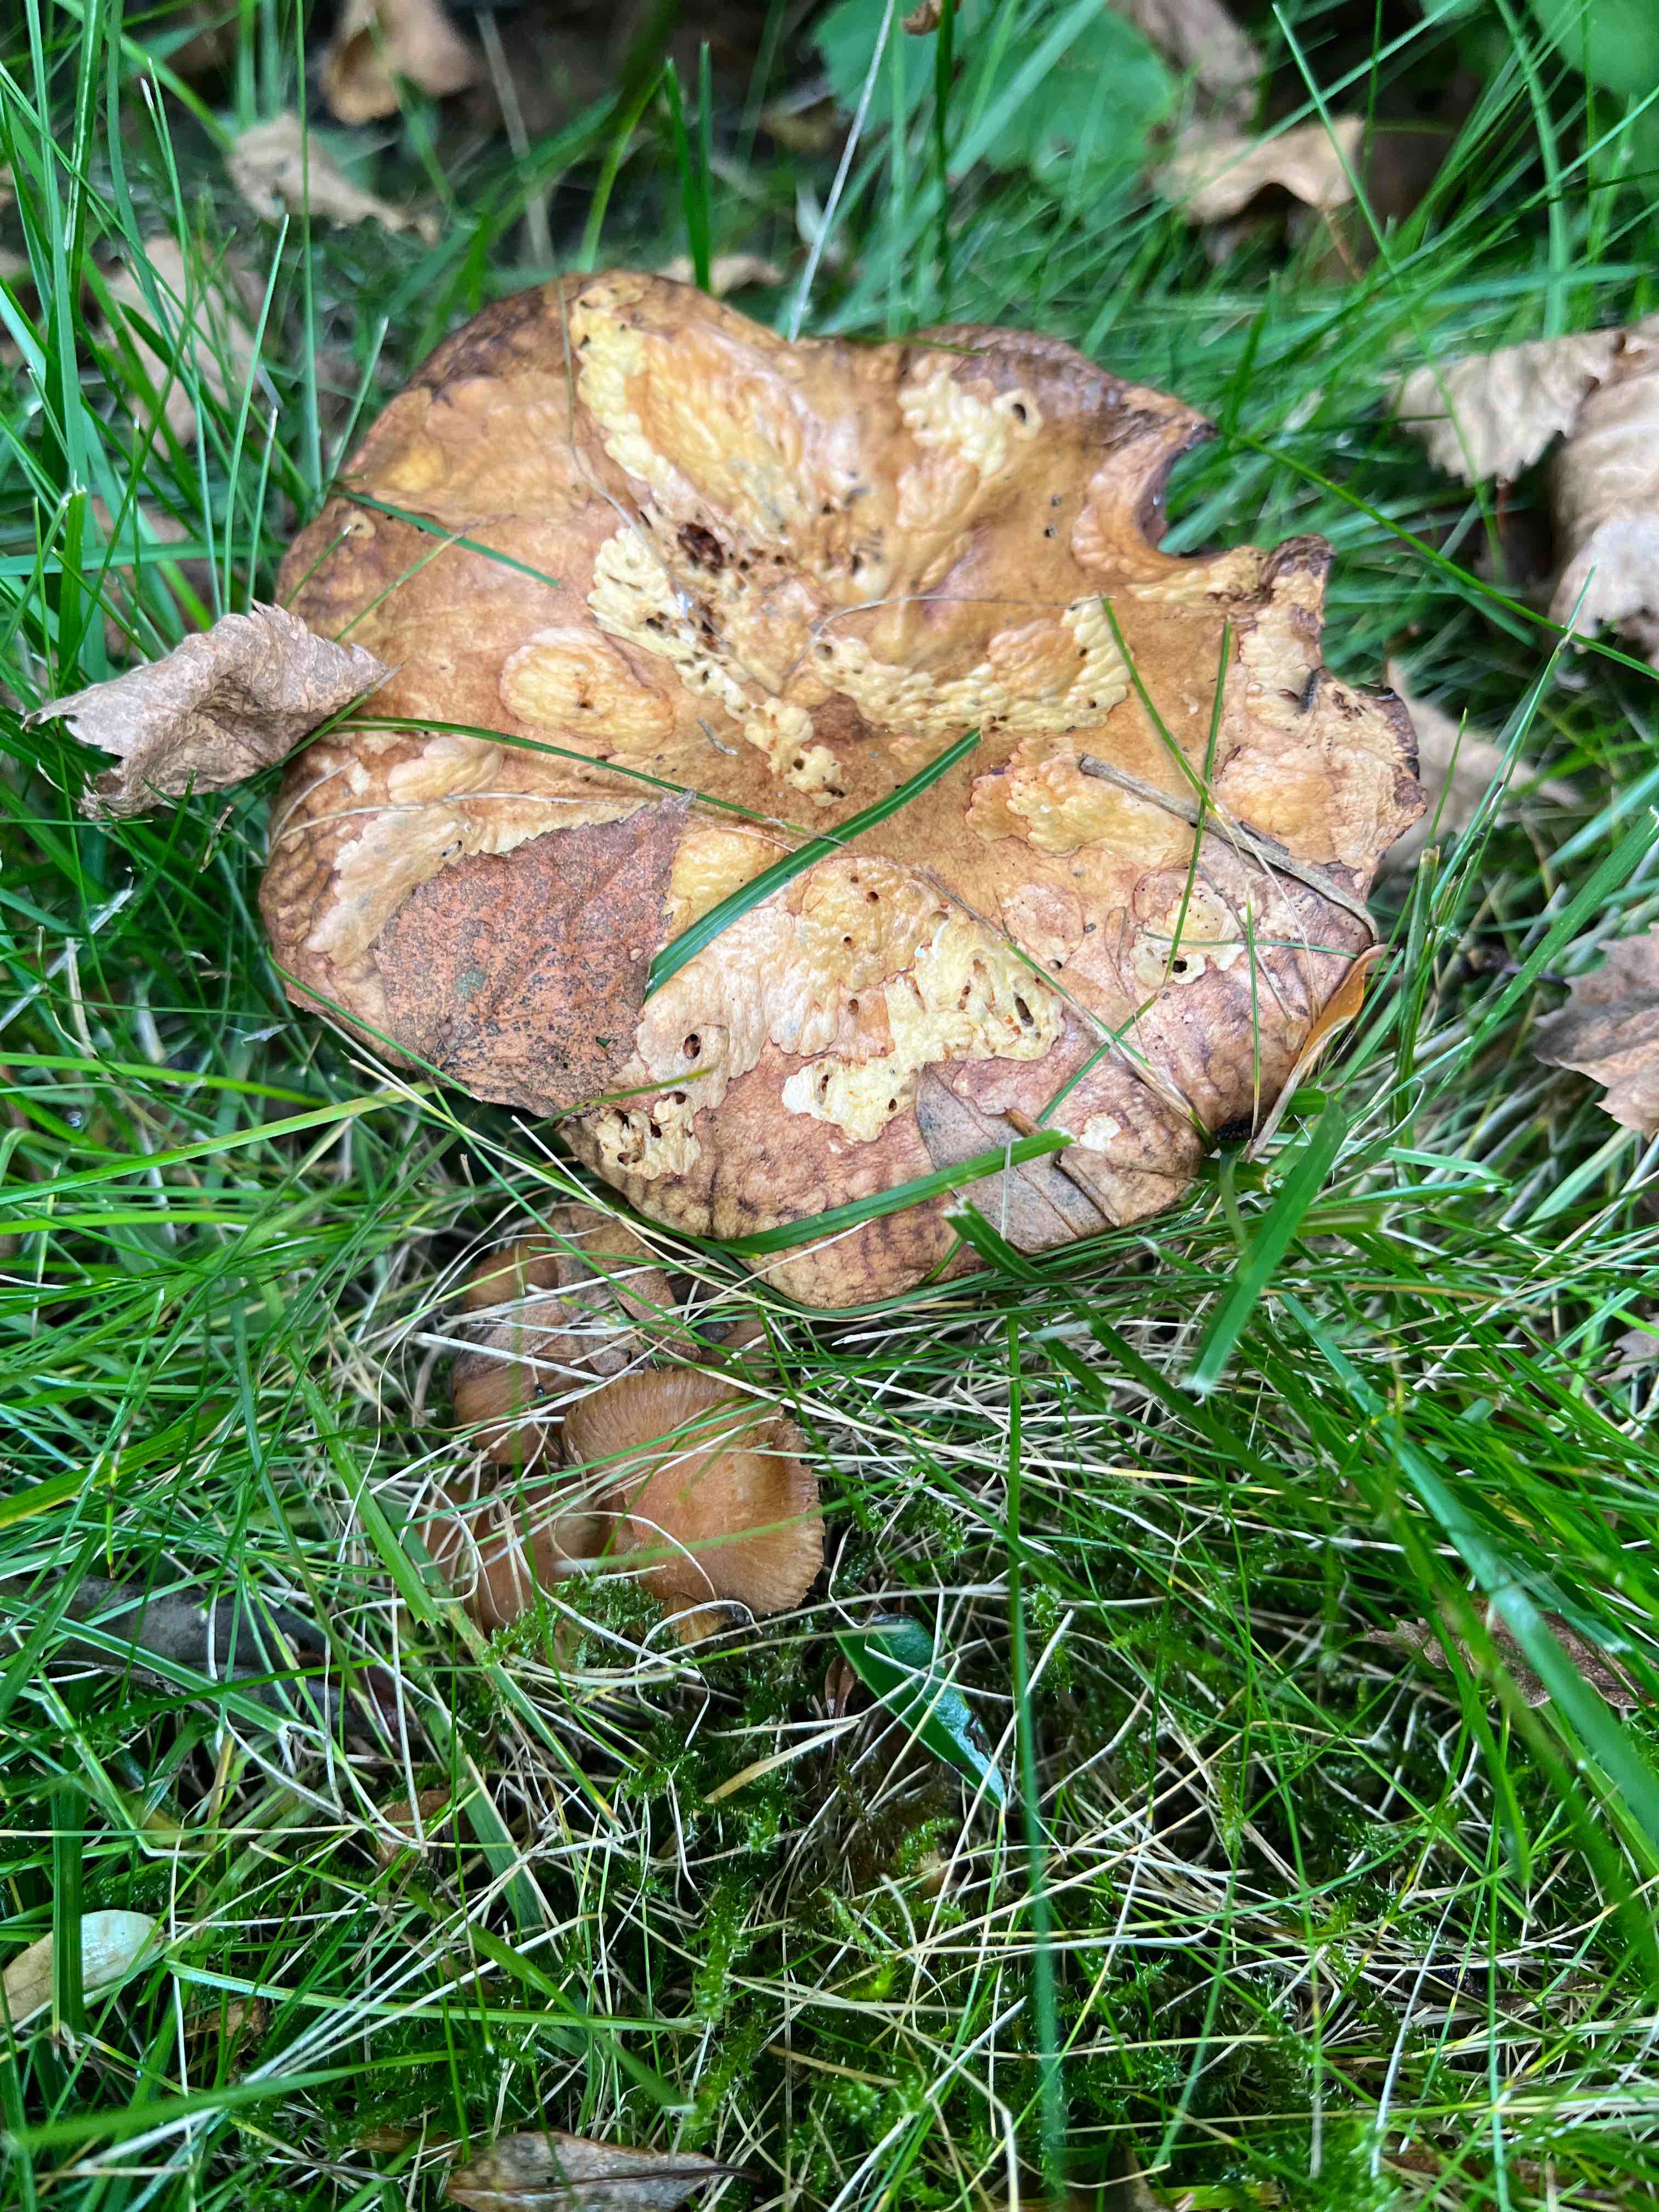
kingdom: Fungi
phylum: Basidiomycota
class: Agaricomycetes
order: Boletales
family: Paxillaceae
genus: Paxillus
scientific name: Paxillus
